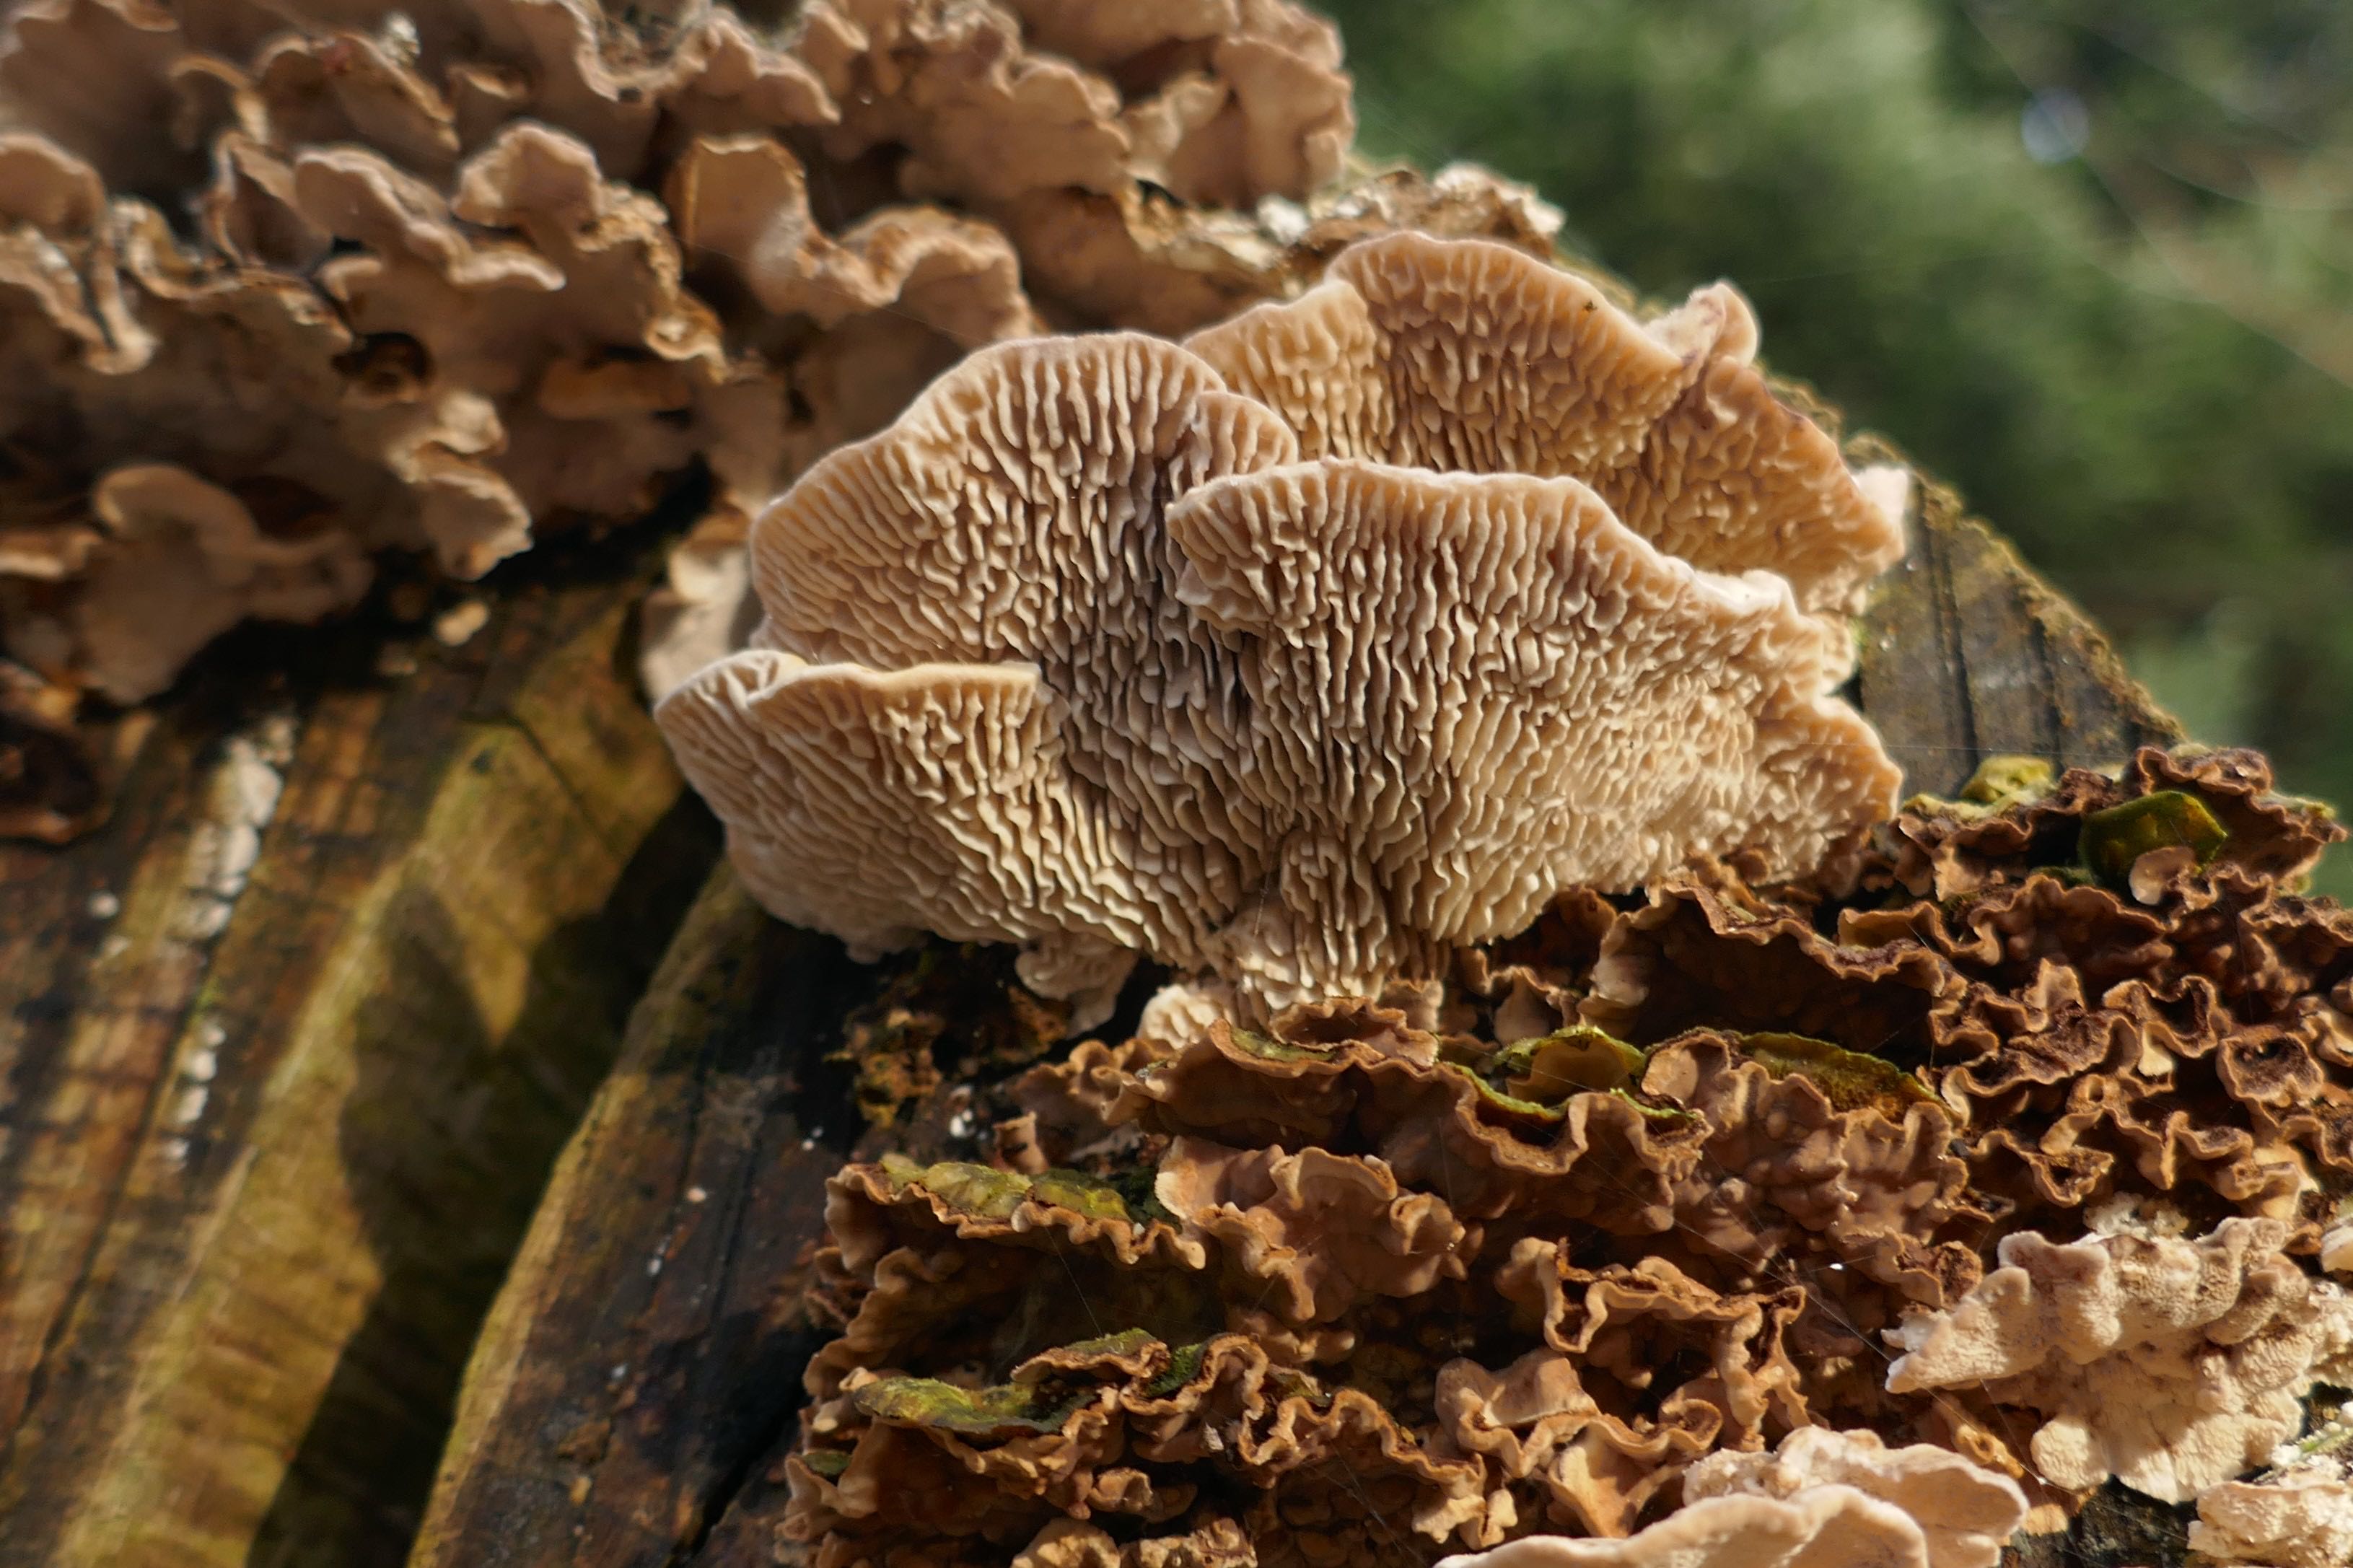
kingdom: Fungi
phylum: Basidiomycota
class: Agaricomycetes
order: Polyporales
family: Polyporaceae
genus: Lenzites
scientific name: Lenzites betulinus
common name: birke-læderporesvamp
